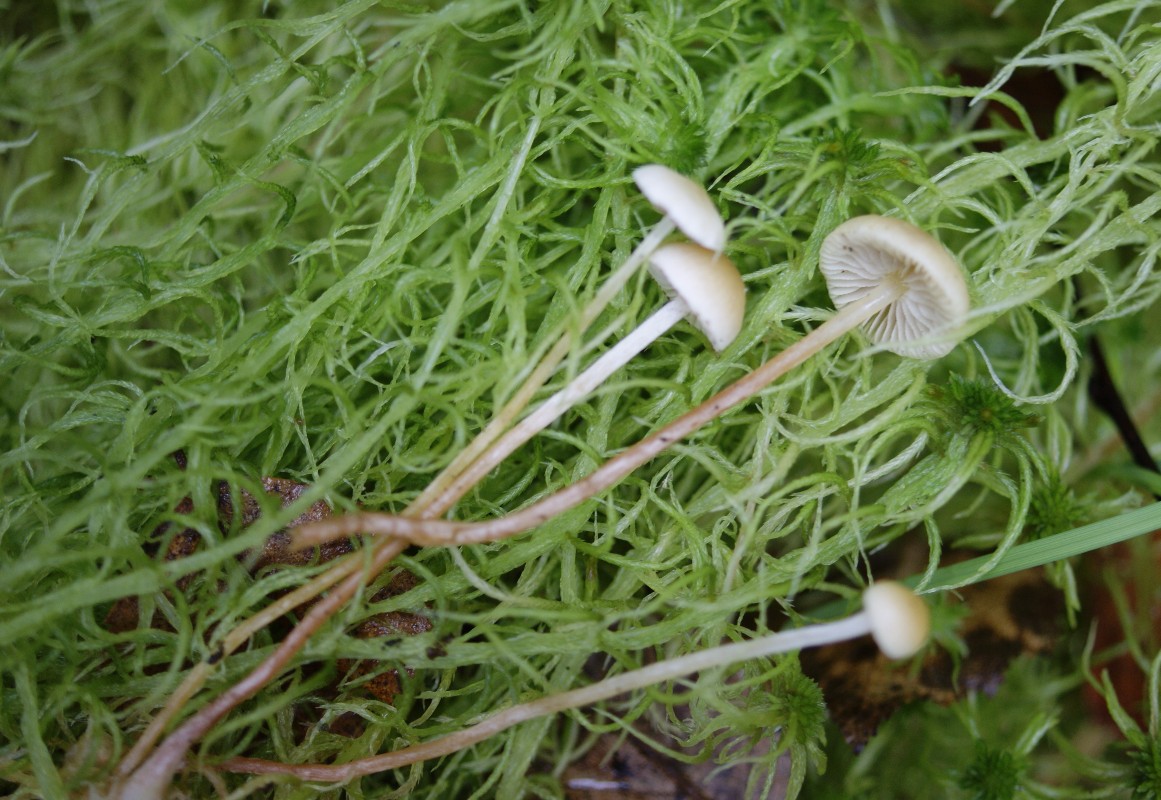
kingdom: Fungi
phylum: Basidiomycota
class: Agaricomycetes
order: Agaricales
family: Strophariaceae
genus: Hypholoma
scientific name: Hypholoma elongatum
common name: slank svovlhat
